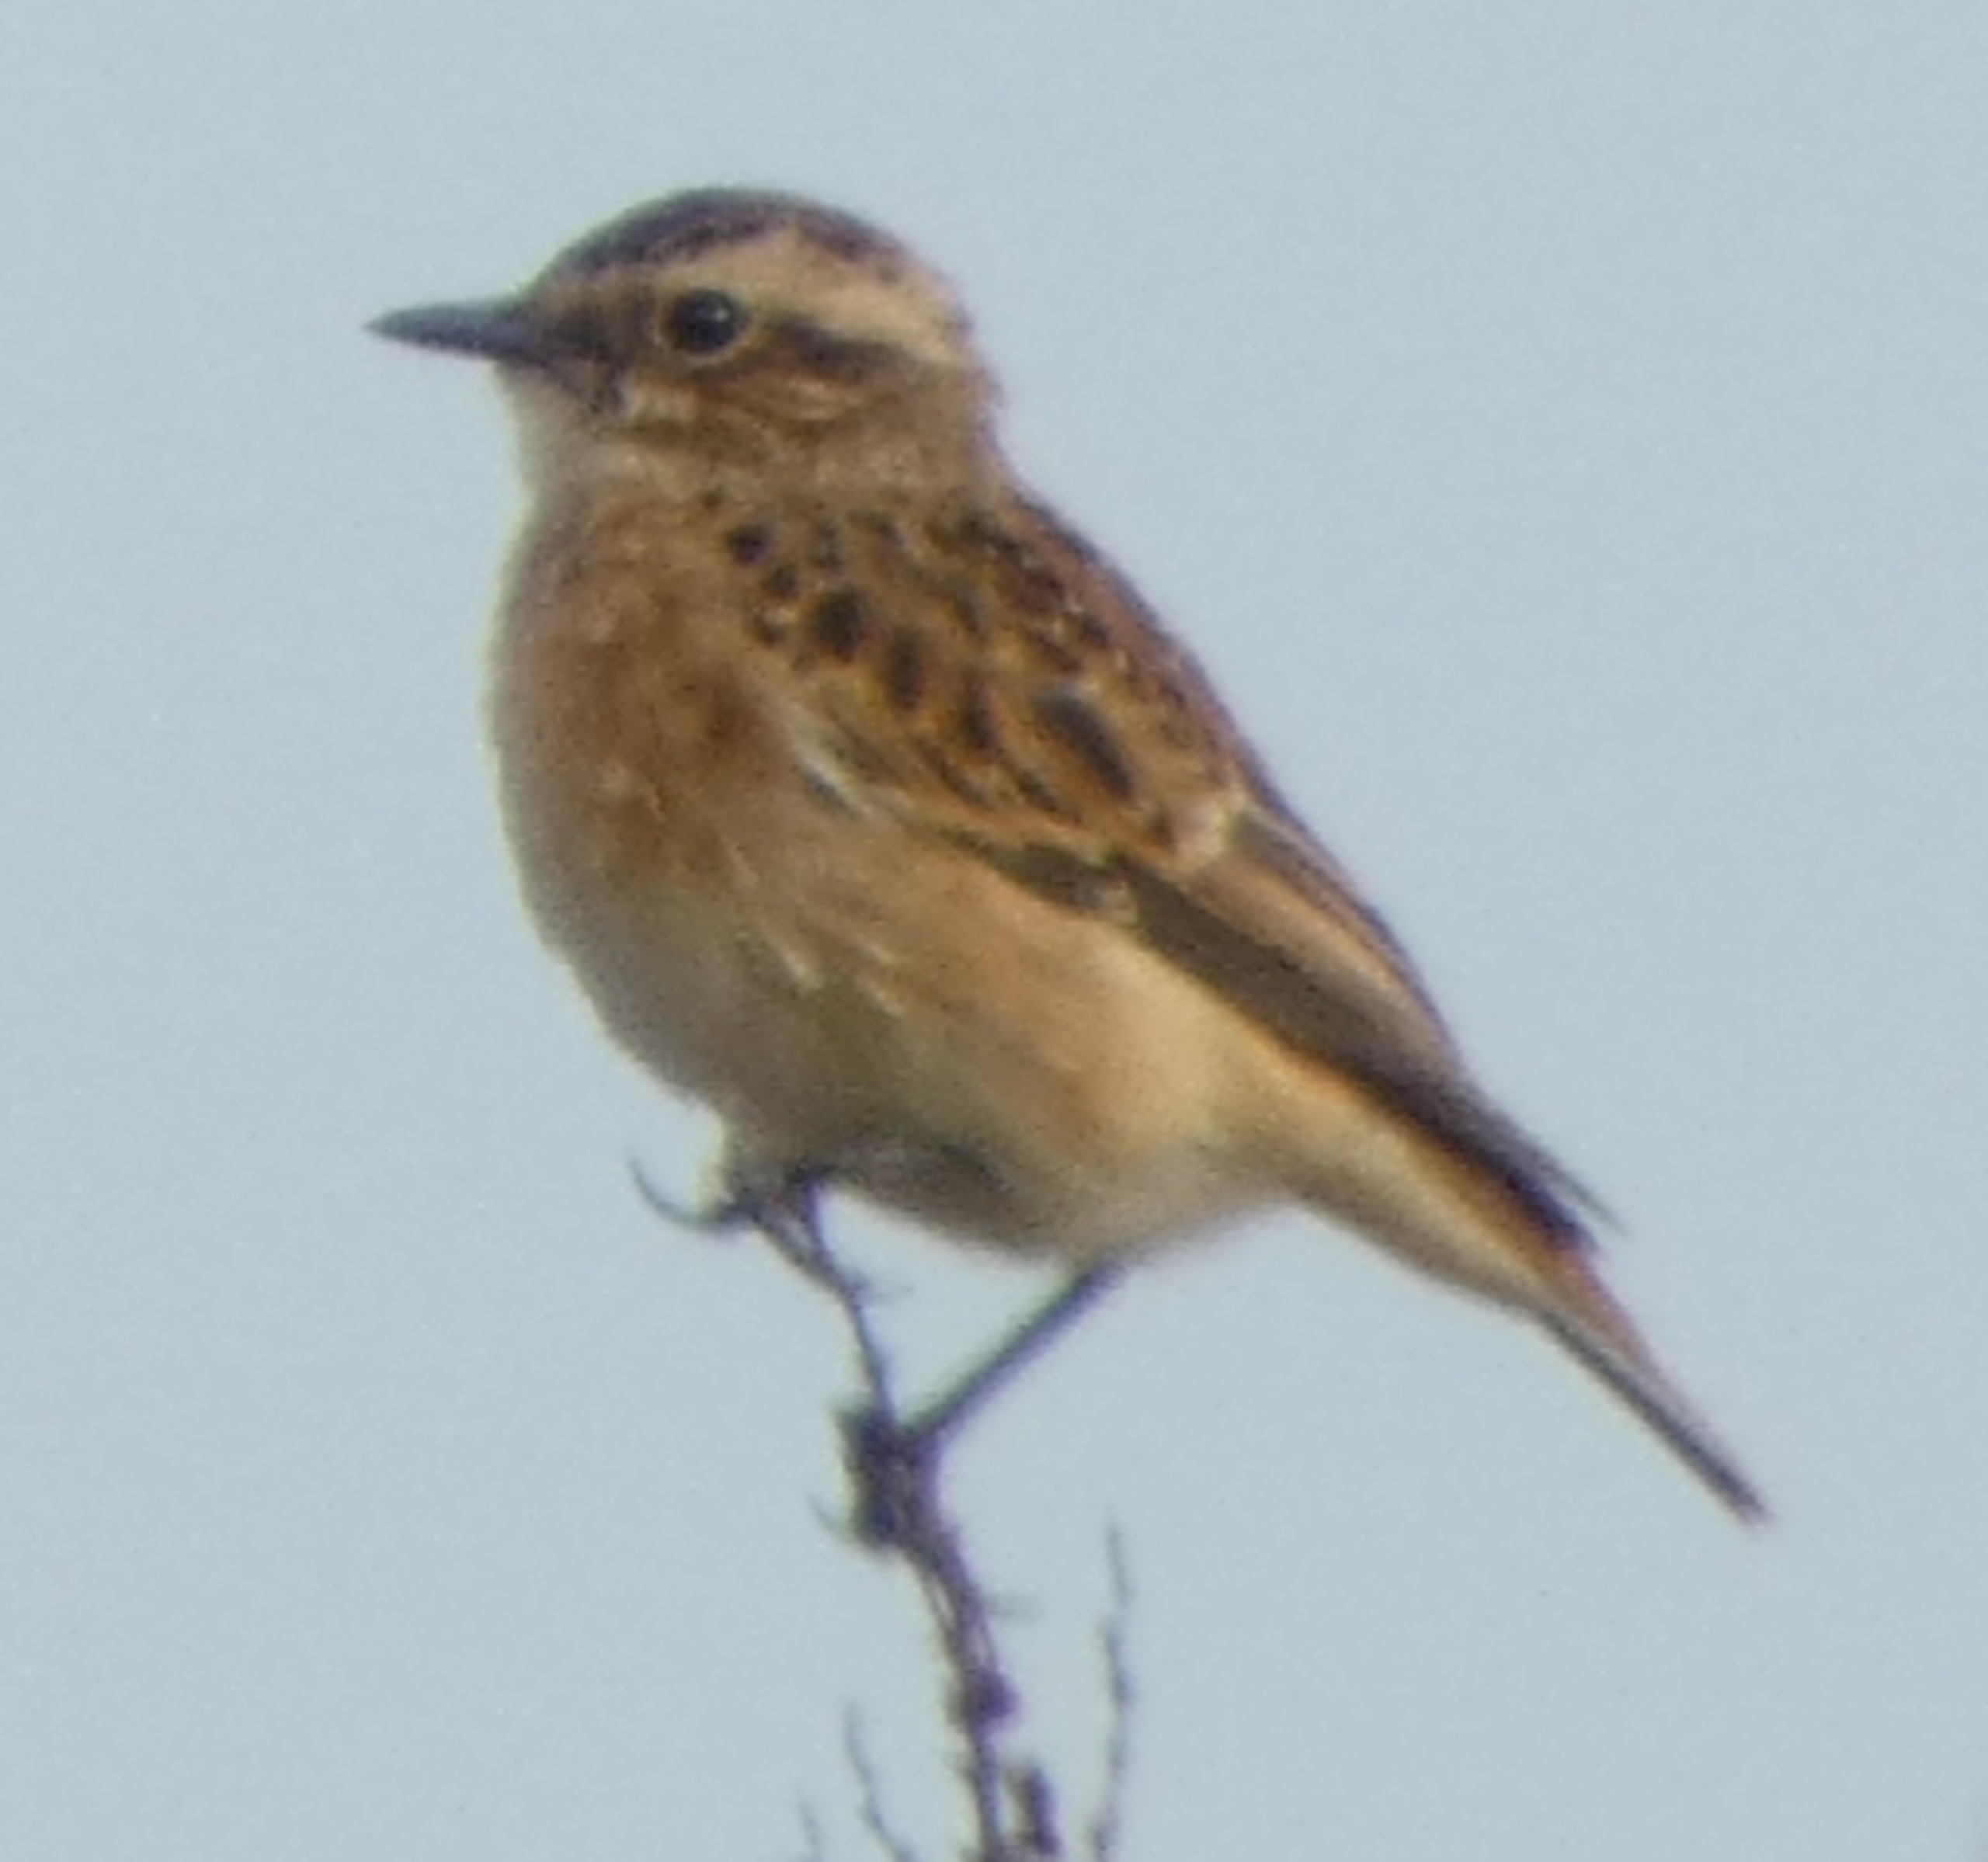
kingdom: Animalia
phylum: Chordata
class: Aves
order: Passeriformes
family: Muscicapidae
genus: Saxicola
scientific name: Saxicola rubetra
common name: Bynkefugl
